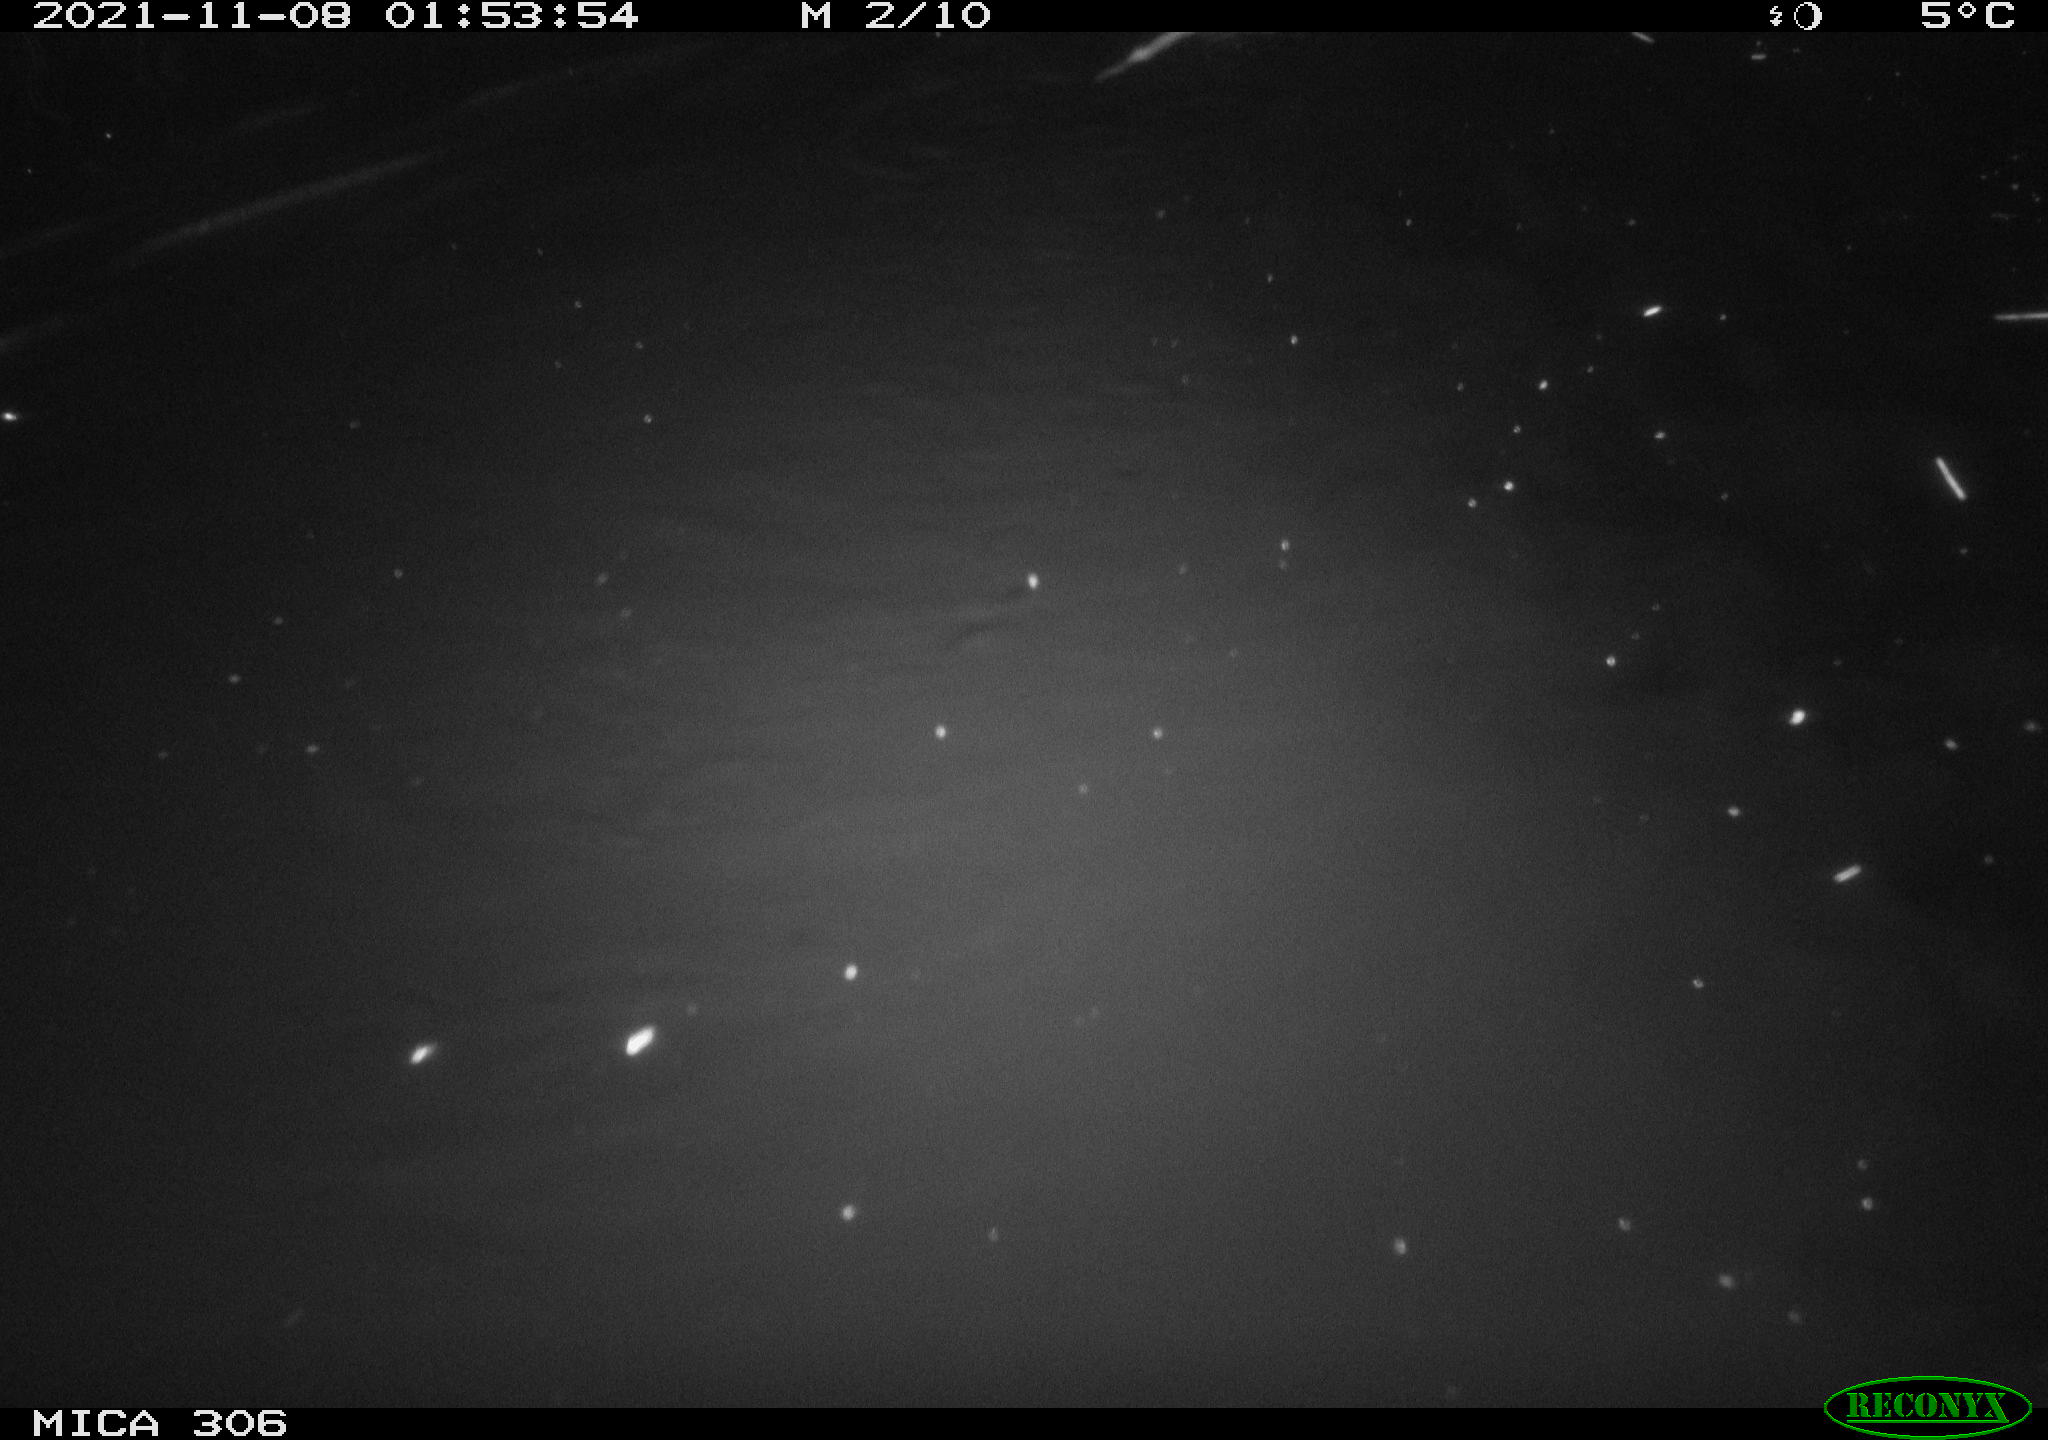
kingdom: Animalia
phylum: Chordata
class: Mammalia
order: Rodentia
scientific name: Rodentia
